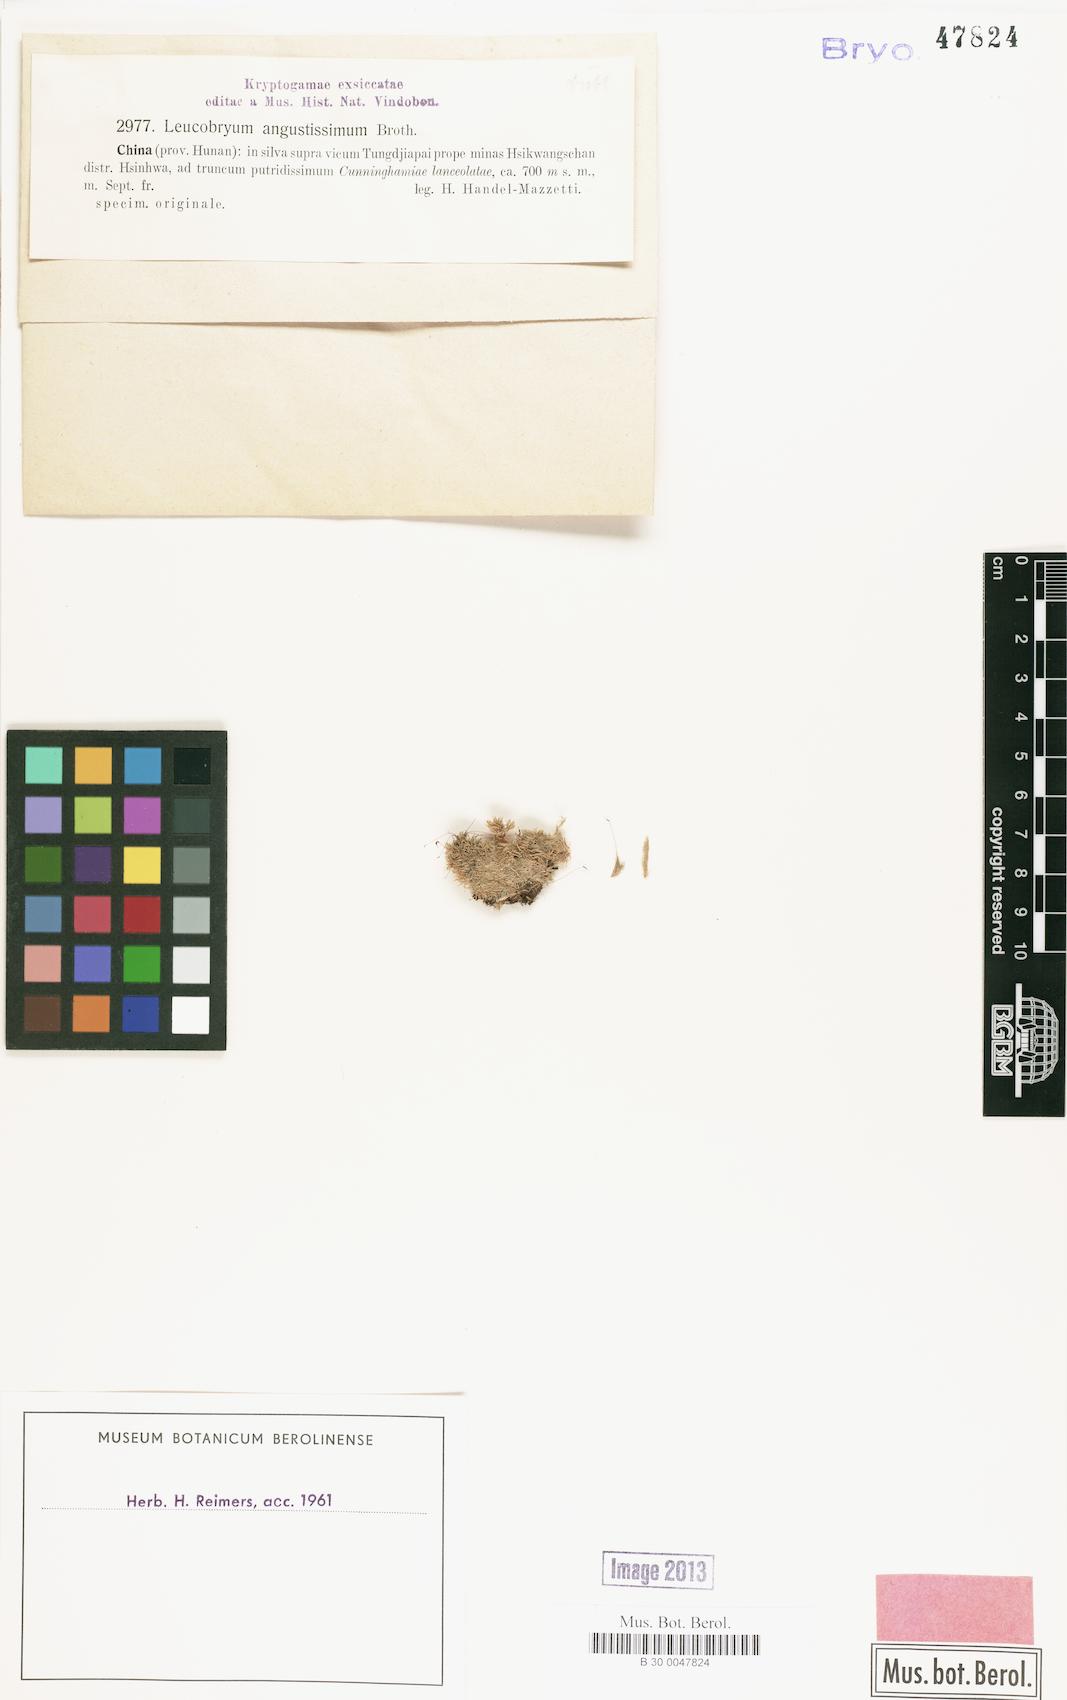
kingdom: Plantae
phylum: Bryophyta
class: Bryopsida
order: Dicranales
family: Leucobryaceae
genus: Leucobryum
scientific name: Leucobryum juniperoideum
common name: Smaller white-moss
